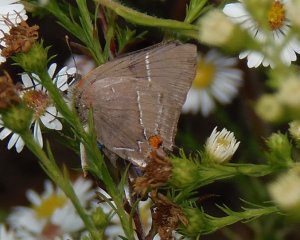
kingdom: Animalia
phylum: Arthropoda
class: Insecta
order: Lepidoptera
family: Lycaenidae
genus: Parrhasius
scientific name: Parrhasius m-album
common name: White-m Hairstreak
